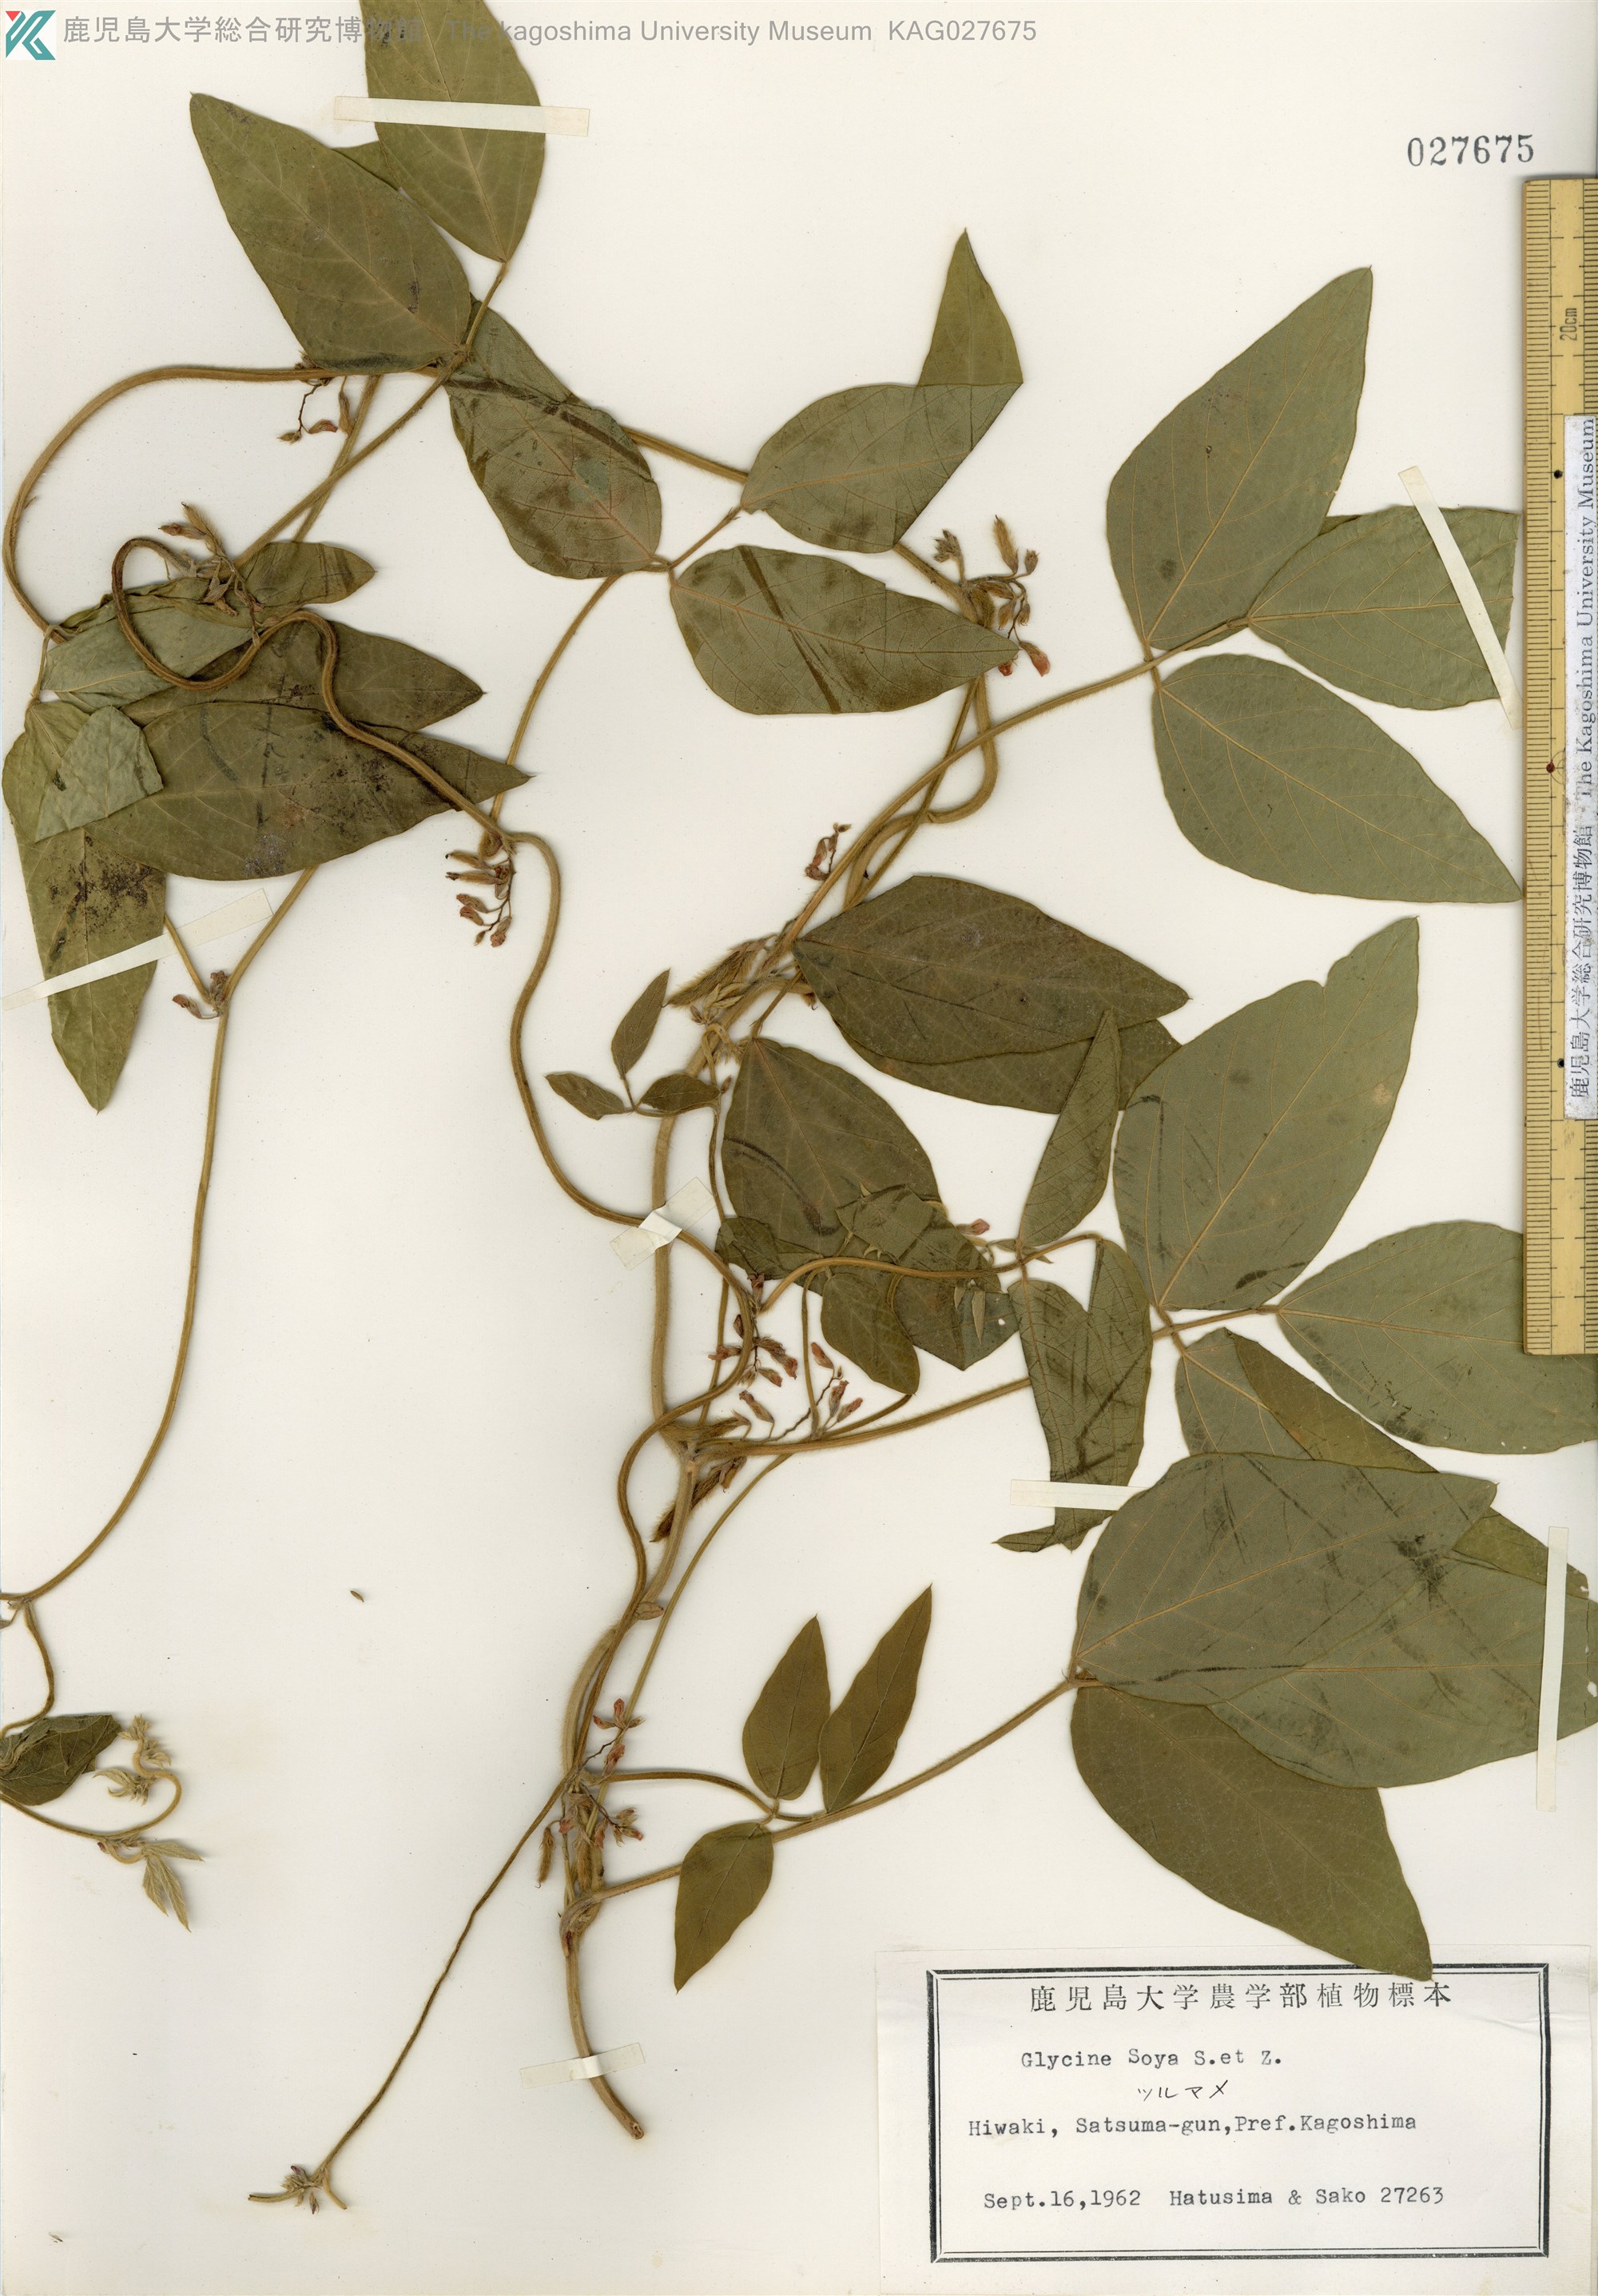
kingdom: Plantae
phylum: Tracheophyta
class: Magnoliopsida
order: Fabales
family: Fabaceae
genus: Glycine
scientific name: Glycine max
